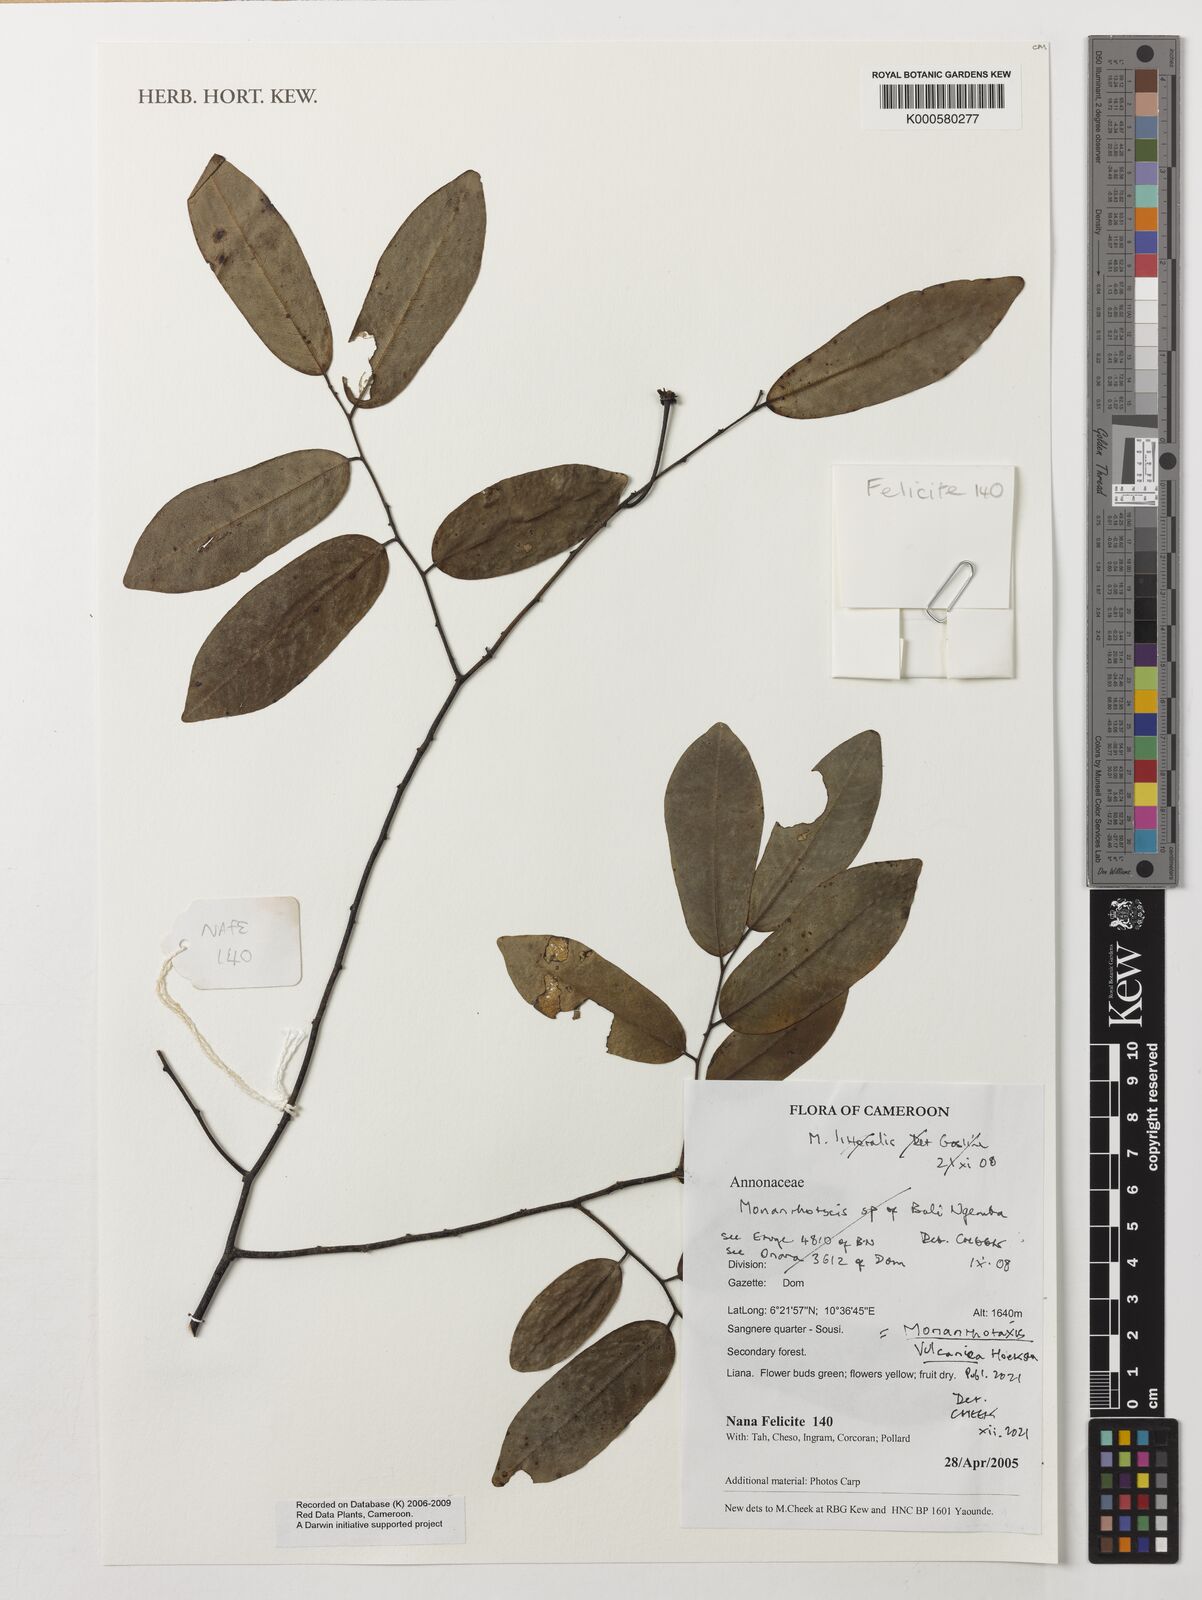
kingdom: Plantae
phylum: Tracheophyta
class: Magnoliopsida
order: Magnoliales
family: Annonaceae
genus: Monanthotaxis
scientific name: Monanthotaxis littoralis
